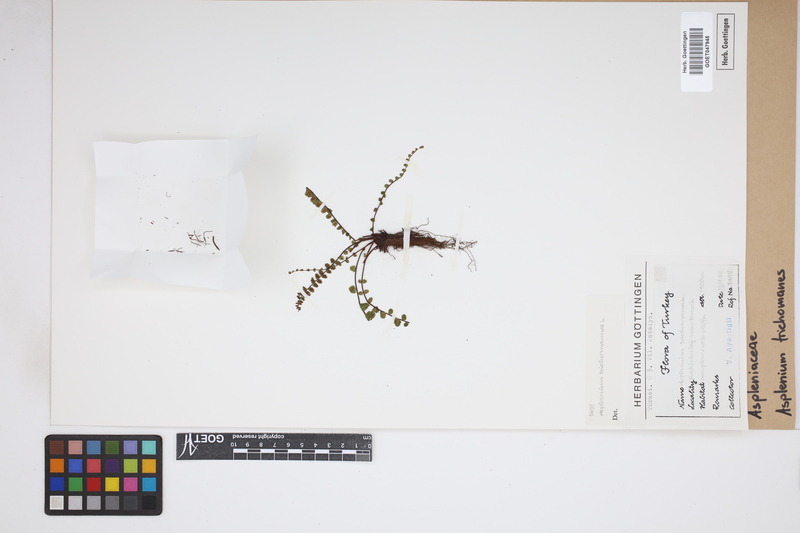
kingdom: Plantae
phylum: Tracheophyta
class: Polypodiopsida
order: Polypodiales
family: Aspleniaceae
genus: Asplenium
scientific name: Asplenium trichomanes
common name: Maidenhair spleenwort
